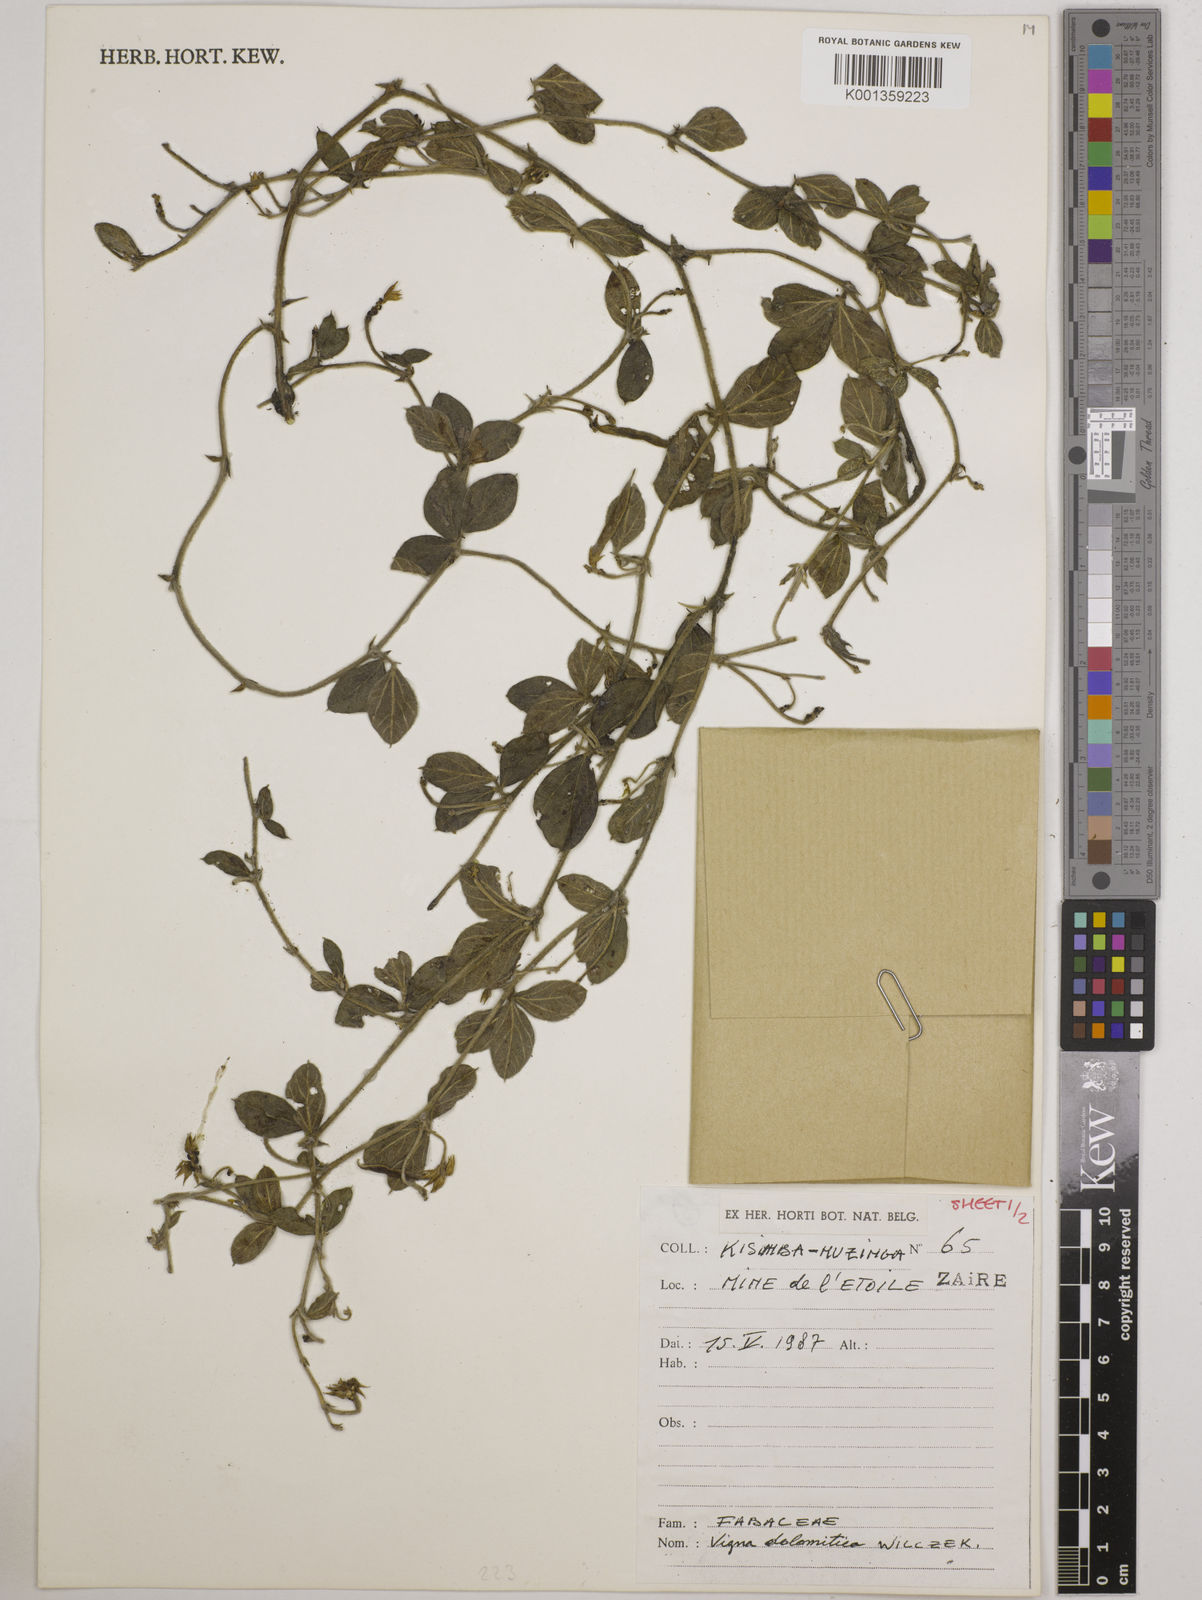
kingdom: Plantae
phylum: Tracheophyta
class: Magnoliopsida
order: Fabales
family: Fabaceae
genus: Vigna
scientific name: Vigna dolomitica
